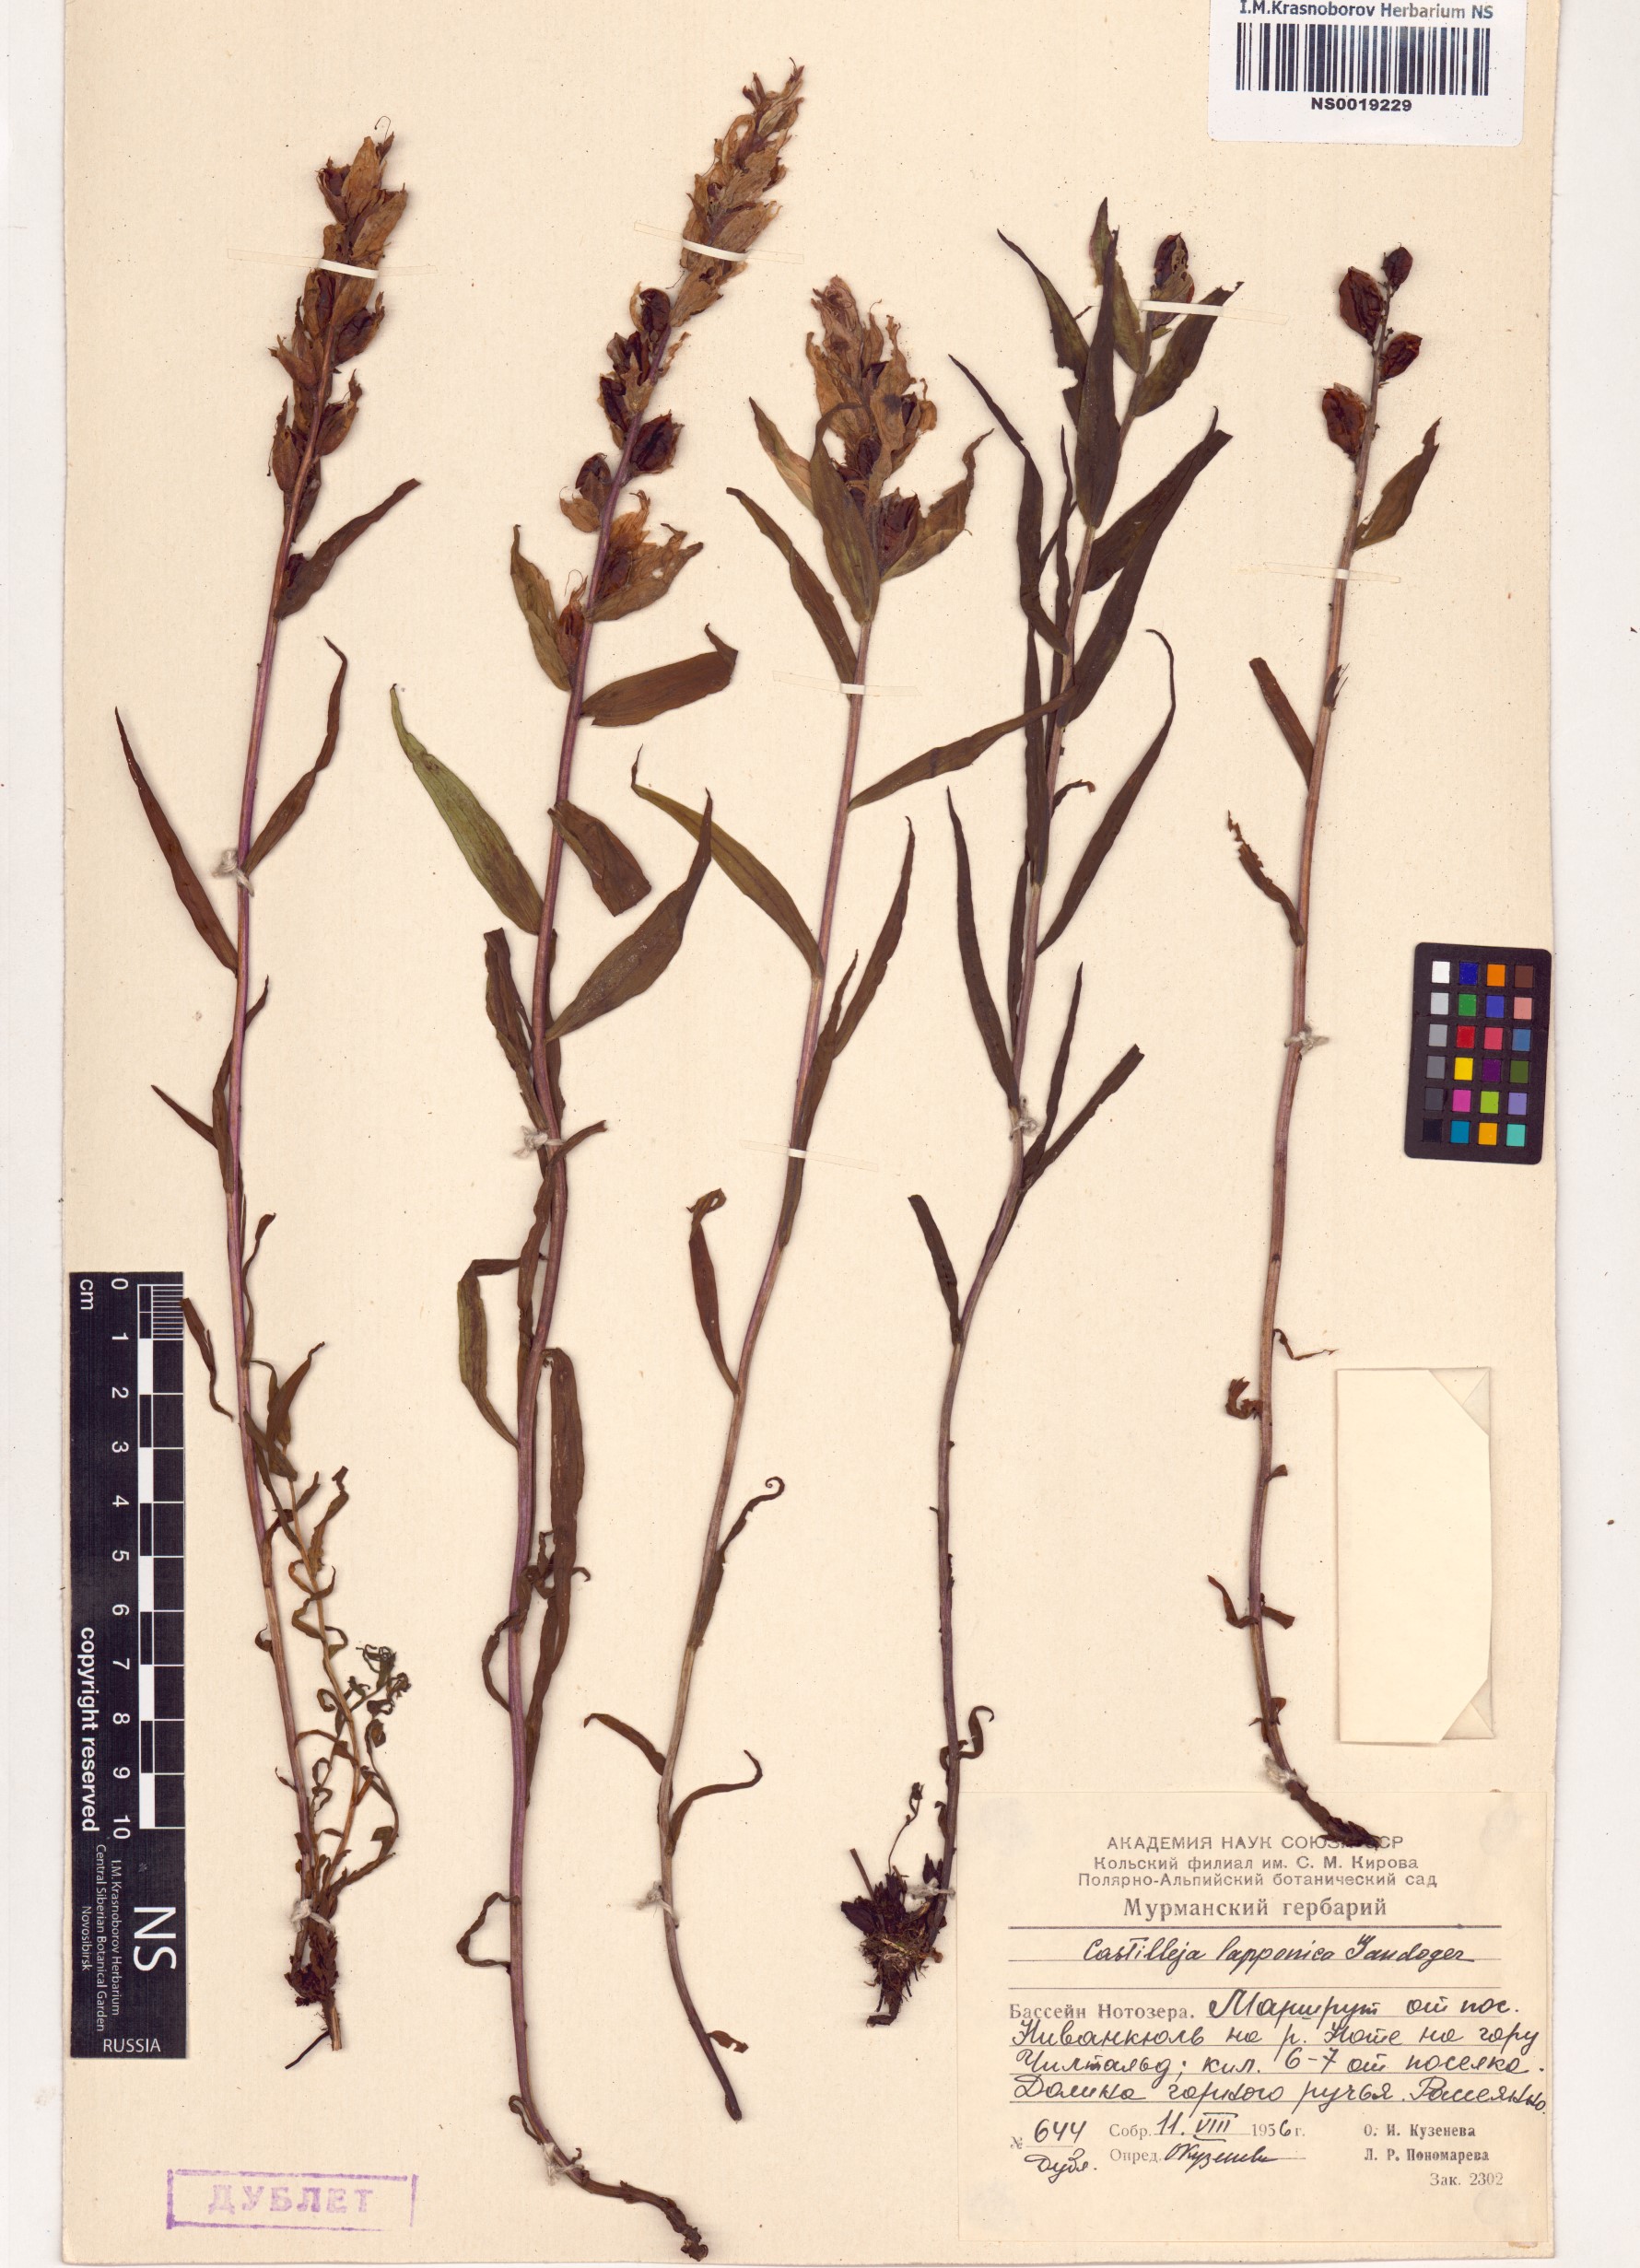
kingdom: Plantae
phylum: Tracheophyta
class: Magnoliopsida
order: Lamiales
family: Orobanchaceae
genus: Castilleja
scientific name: Castilleja lapponica
